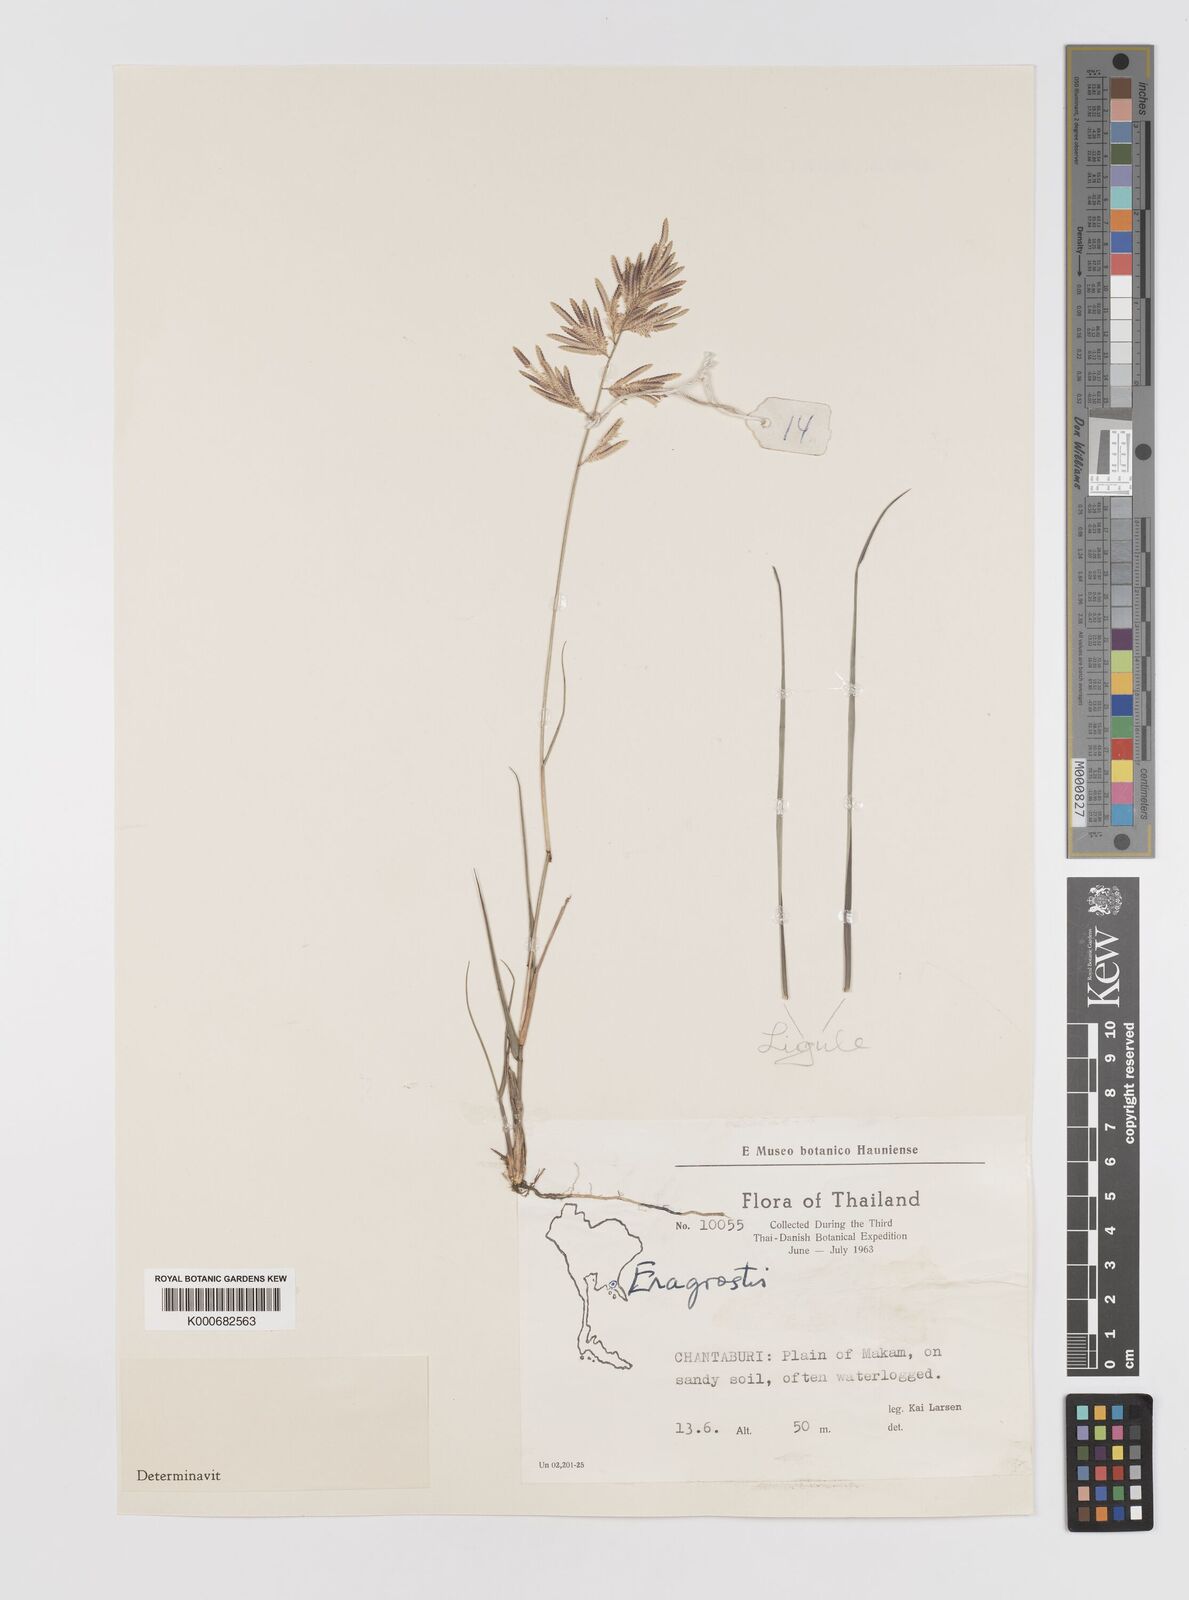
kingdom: Plantae
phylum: Tracheophyta
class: Liliopsida
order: Poales
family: Poaceae
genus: Eragrostis
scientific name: Eragrostis zeylanica
